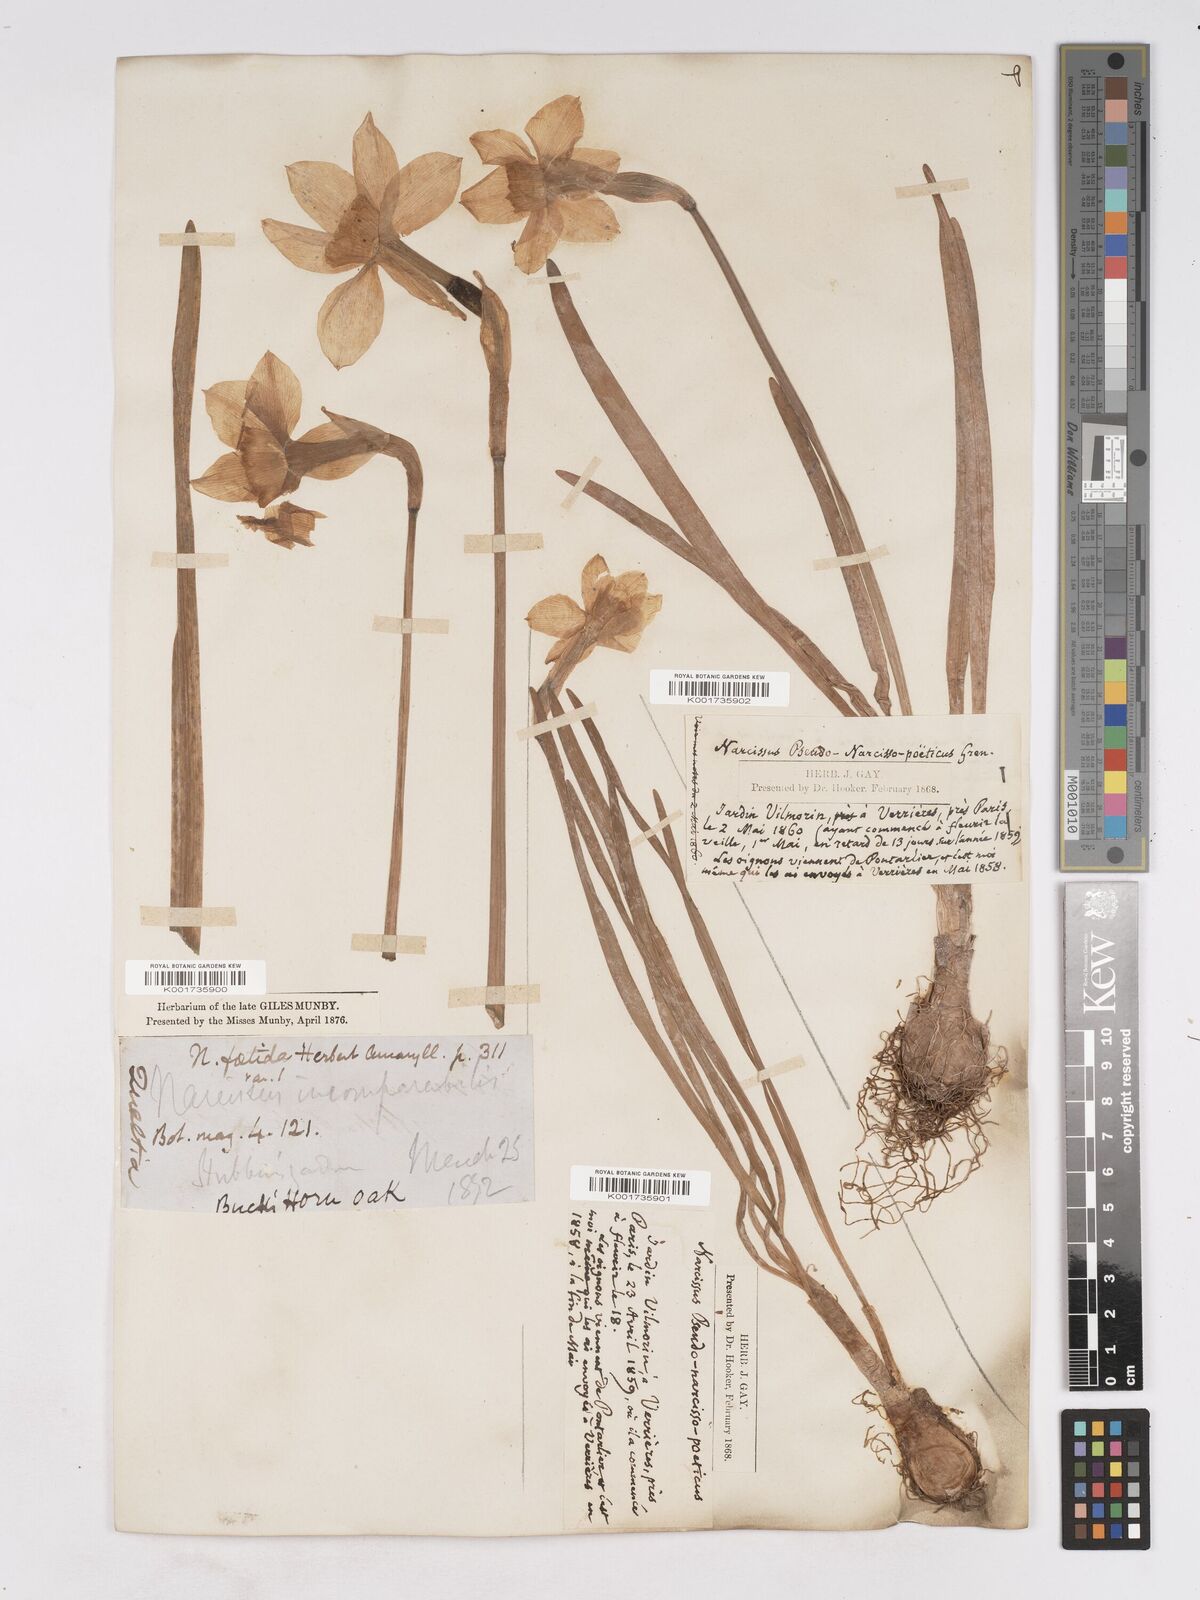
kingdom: Plantae
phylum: Tracheophyta
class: Liliopsida
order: Asparagales
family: Amaryllidaceae
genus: Narcissus
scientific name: Narcissus incomparabilis
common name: Nonesuch daffodil
